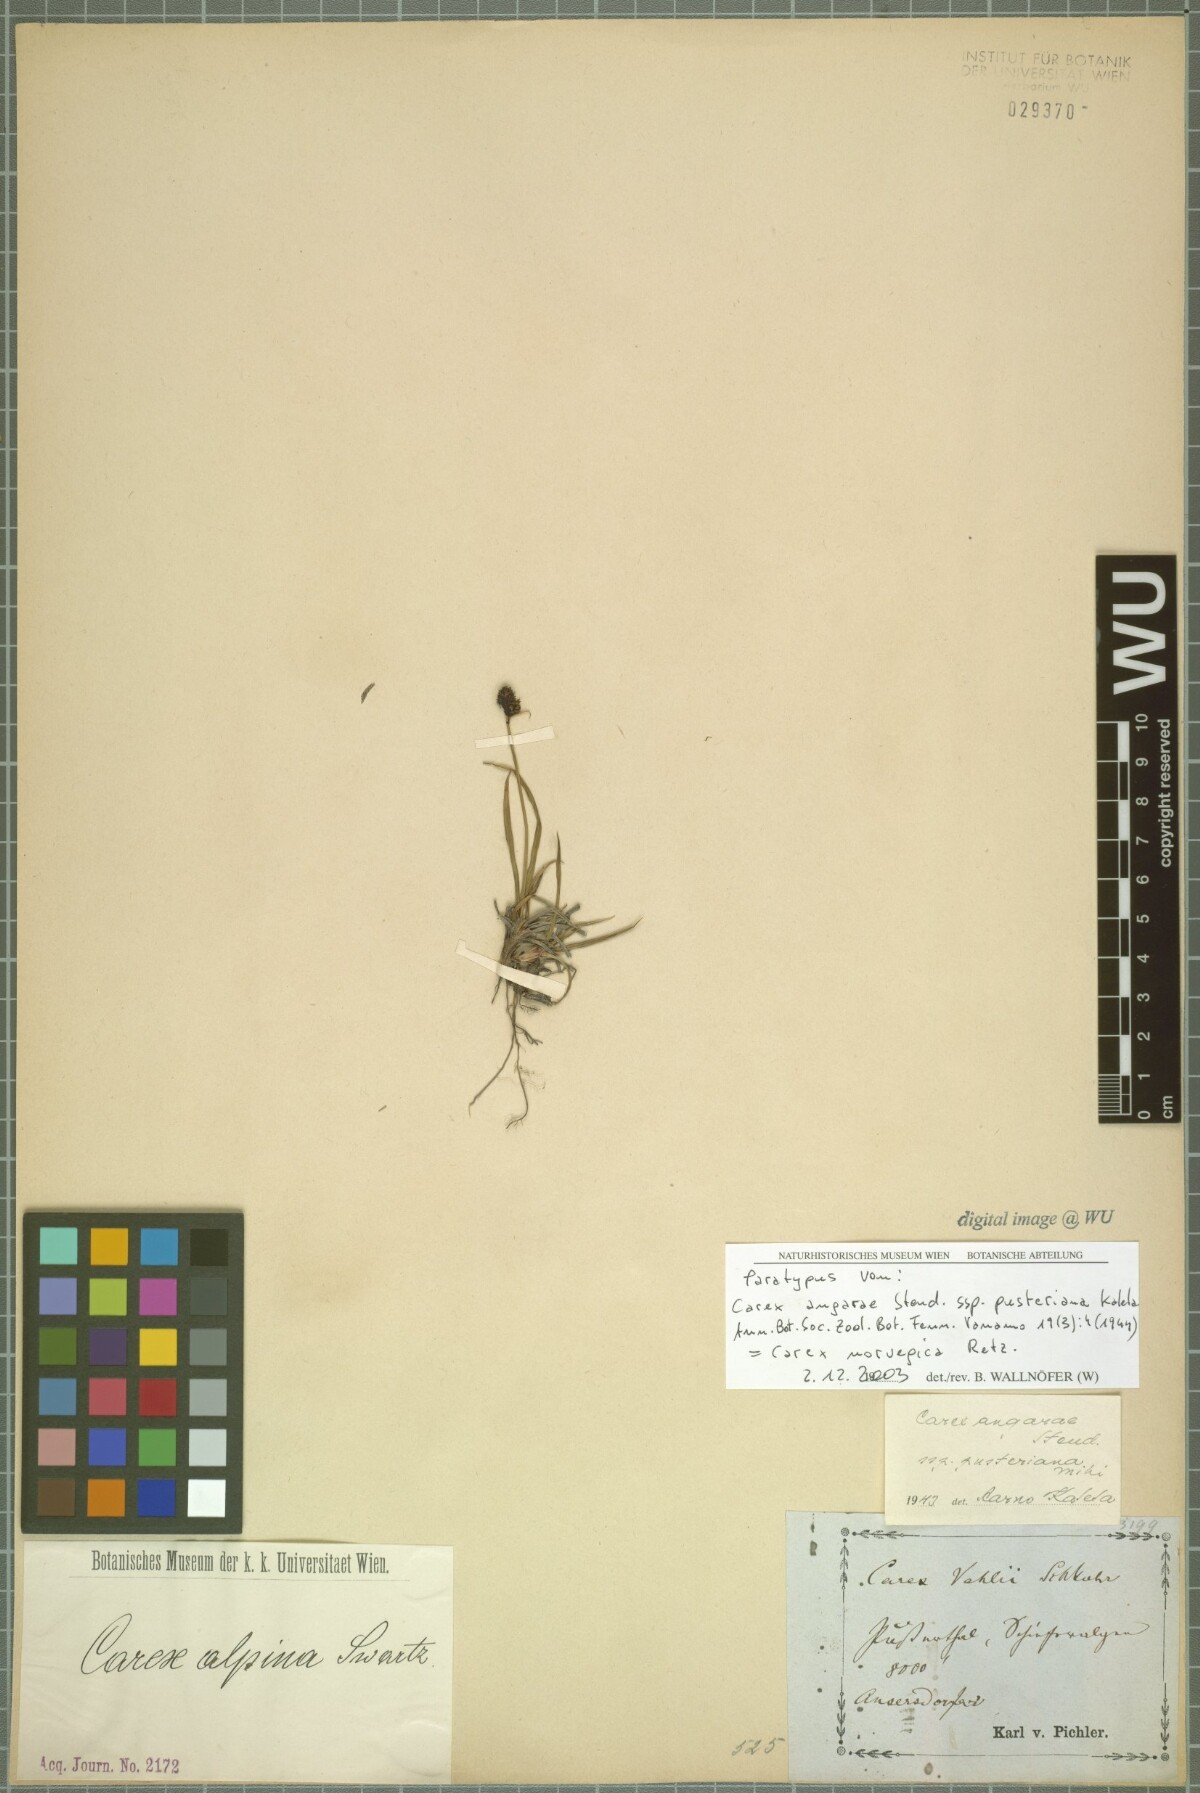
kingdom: Plantae
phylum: Tracheophyta
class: Liliopsida
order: Poales
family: Cyperaceae
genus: Carex
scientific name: Carex norvegica
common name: Close-headed alpine-sedge
